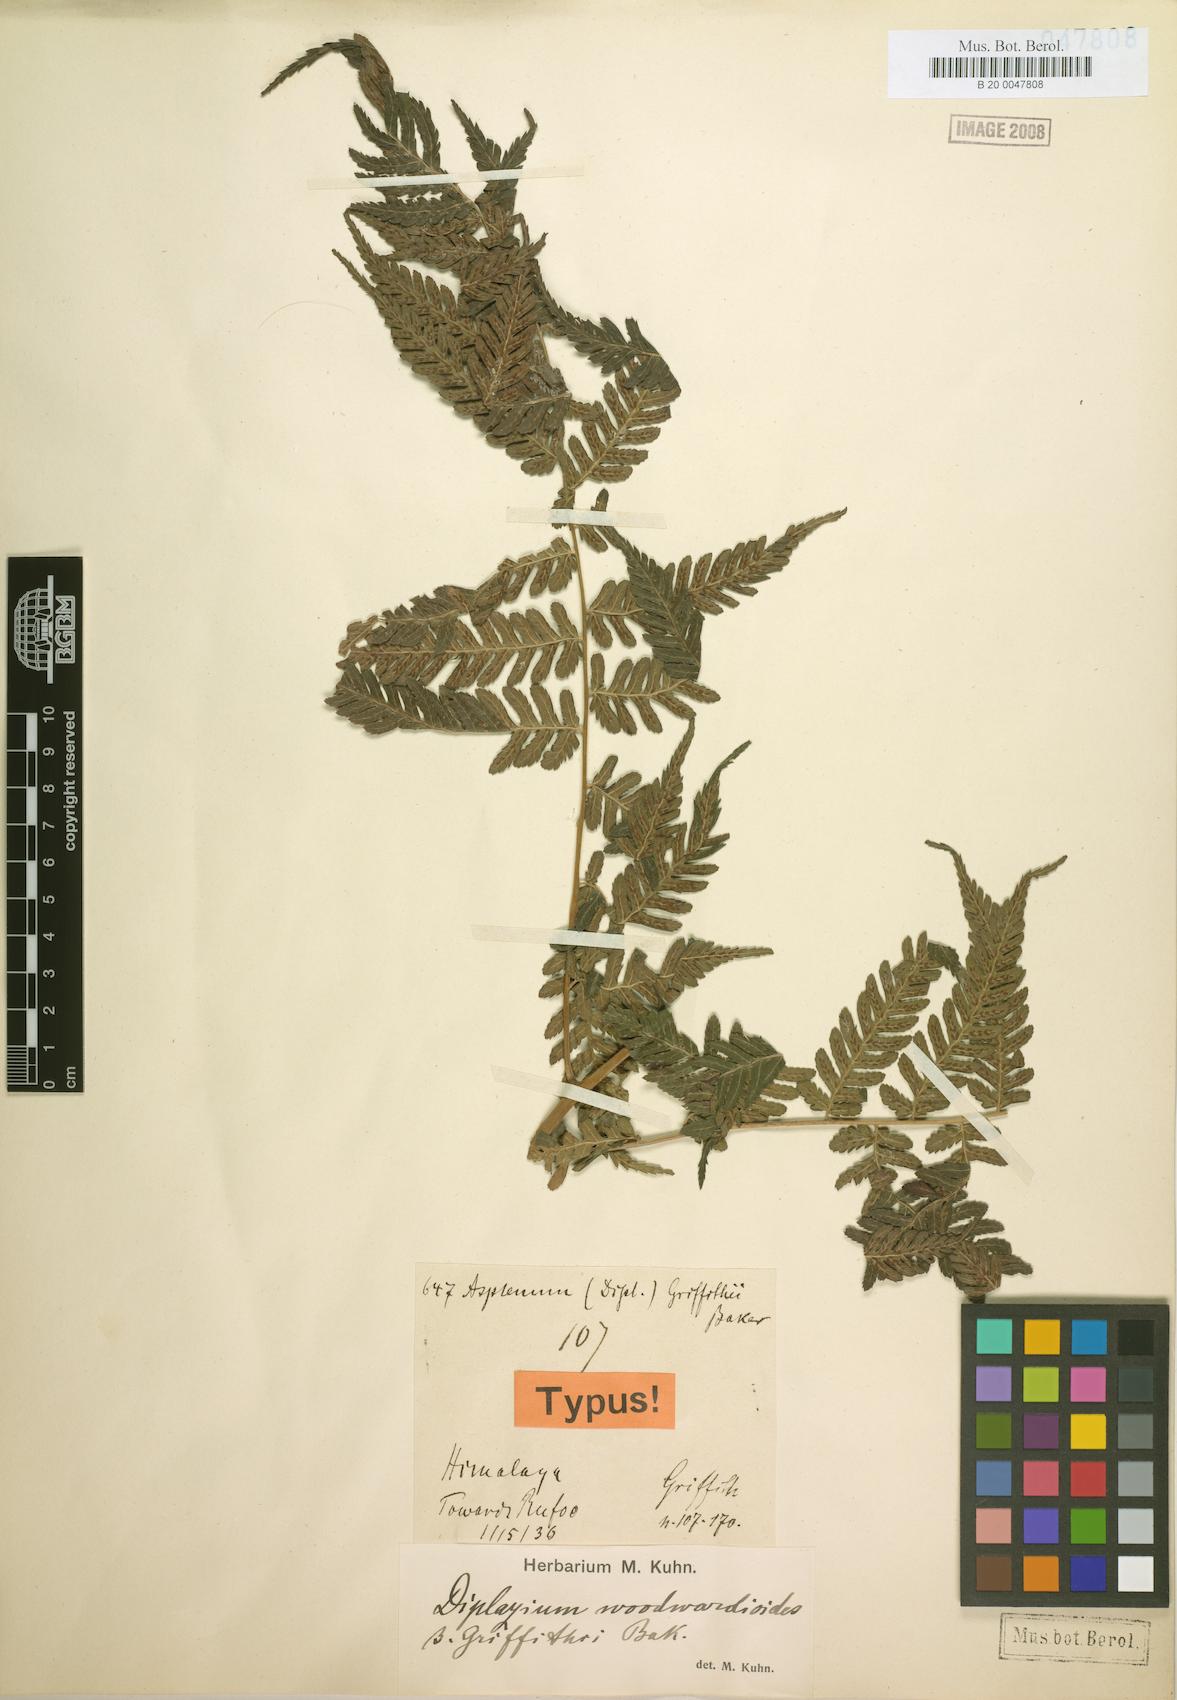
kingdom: Plantae
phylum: Tracheophyta
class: Polypodiopsida
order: Polypodiales
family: Athyriaceae
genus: Diplazium
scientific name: Diplazium griffithii
